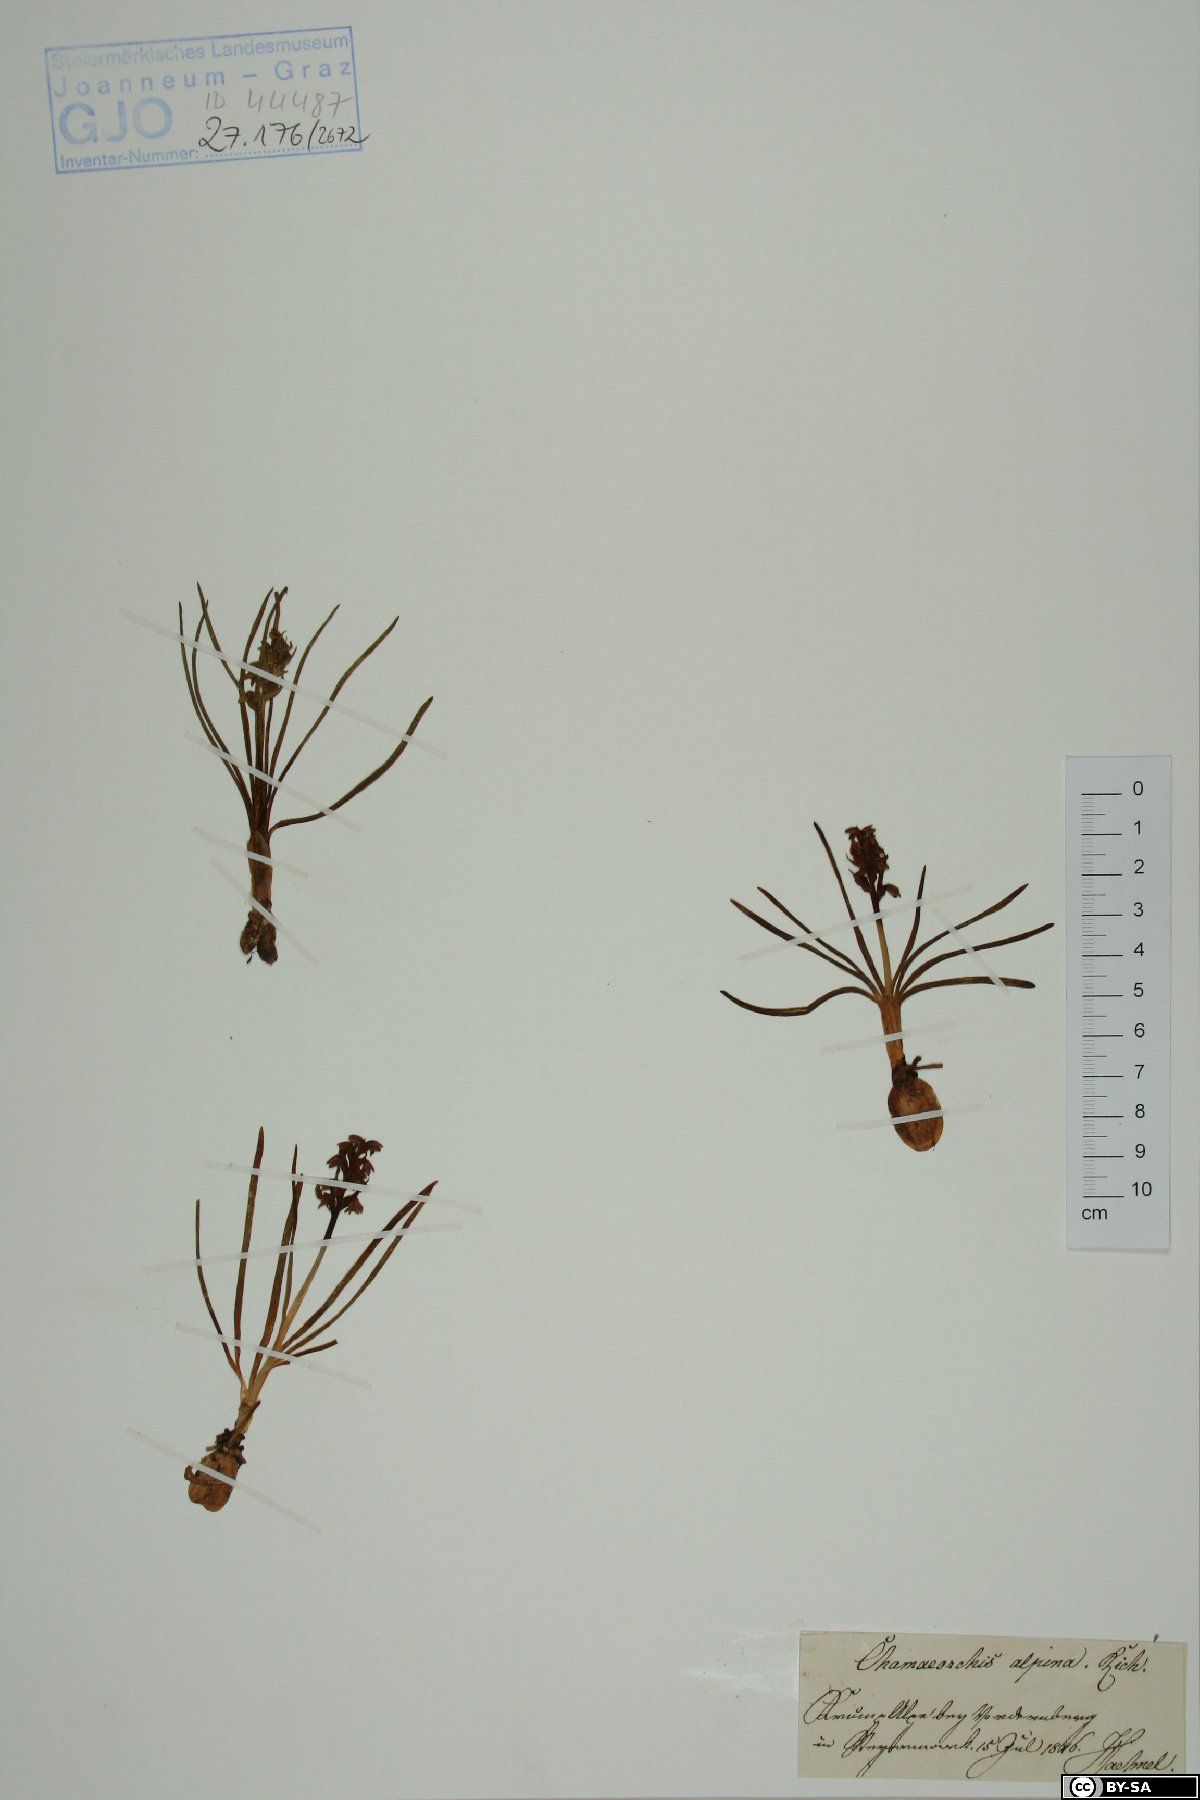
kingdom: Plantae
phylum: Tracheophyta
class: Liliopsida
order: Asparagales
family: Orchidaceae
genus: Chamorchis
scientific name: Chamorchis alpina
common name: Alpine chamorchis
